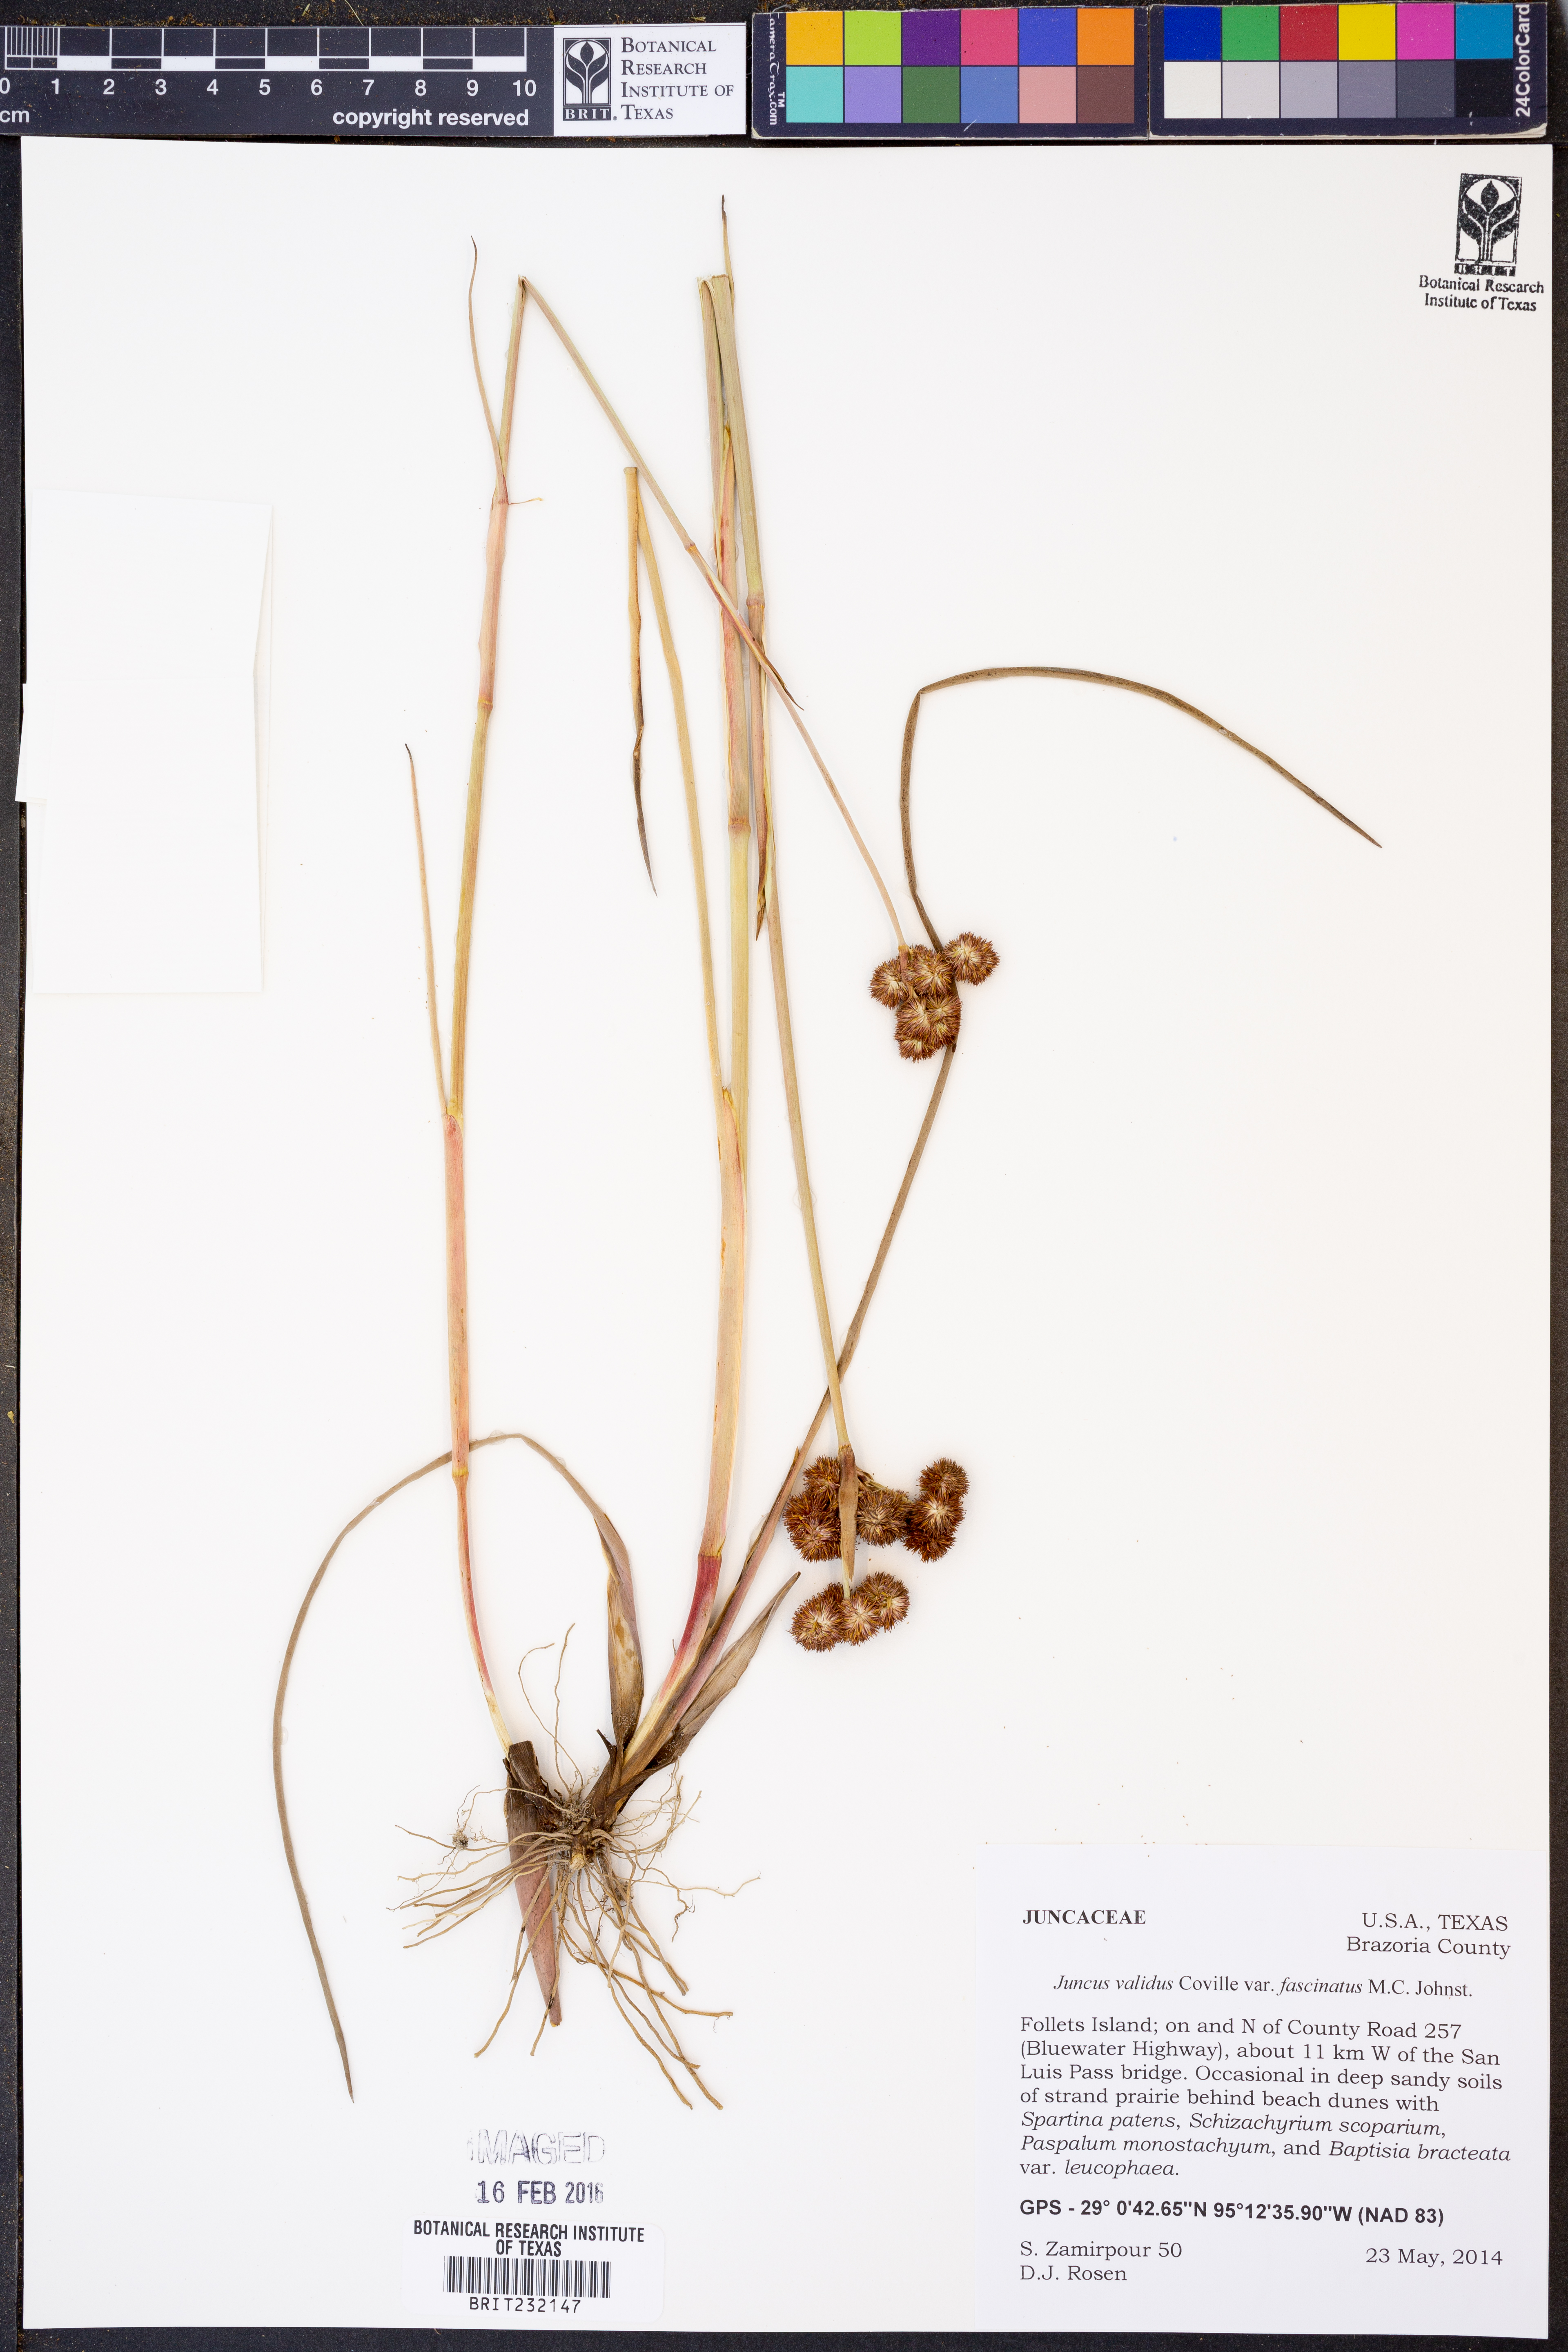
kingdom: Plantae
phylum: Tracheophyta
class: Liliopsida
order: Poales
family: Juncaceae
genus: Juncus
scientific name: Juncus fascinatus
